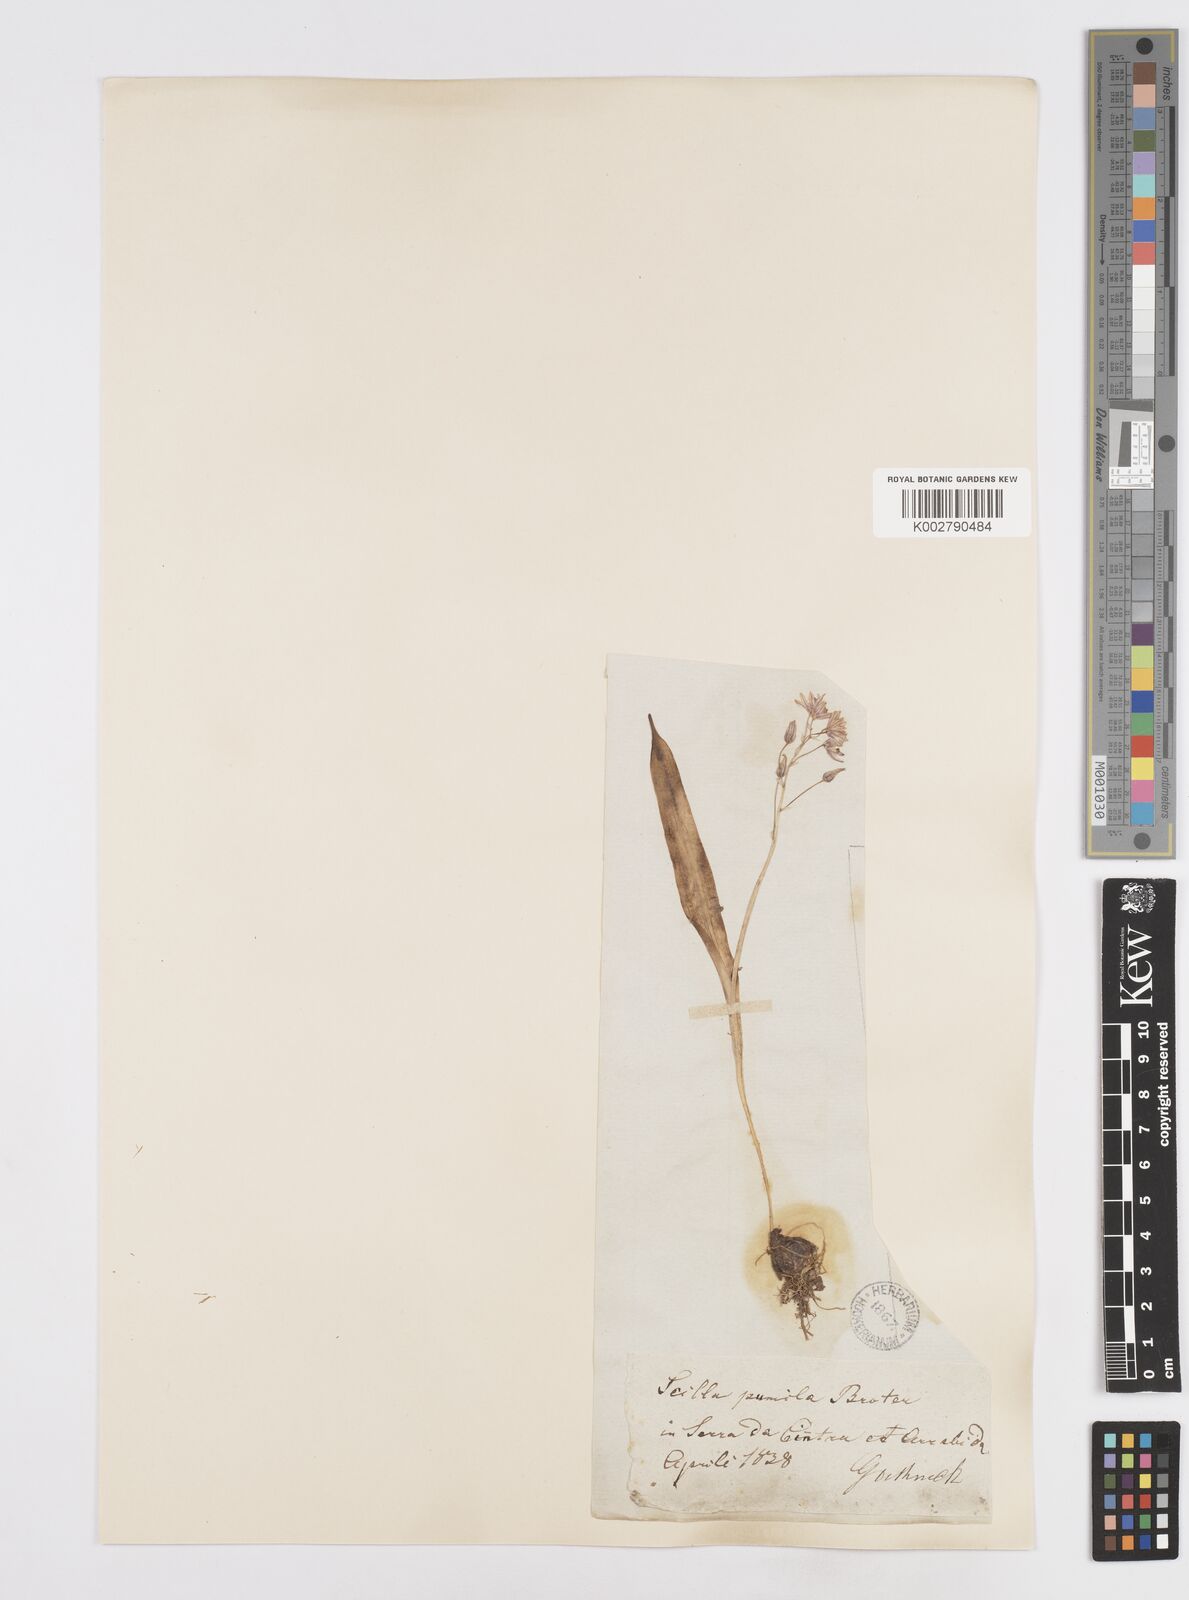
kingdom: Plantae
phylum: Tracheophyta
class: Liliopsida
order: Asparagales
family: Asparagaceae
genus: Scilla
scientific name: Scilla monophyllos
